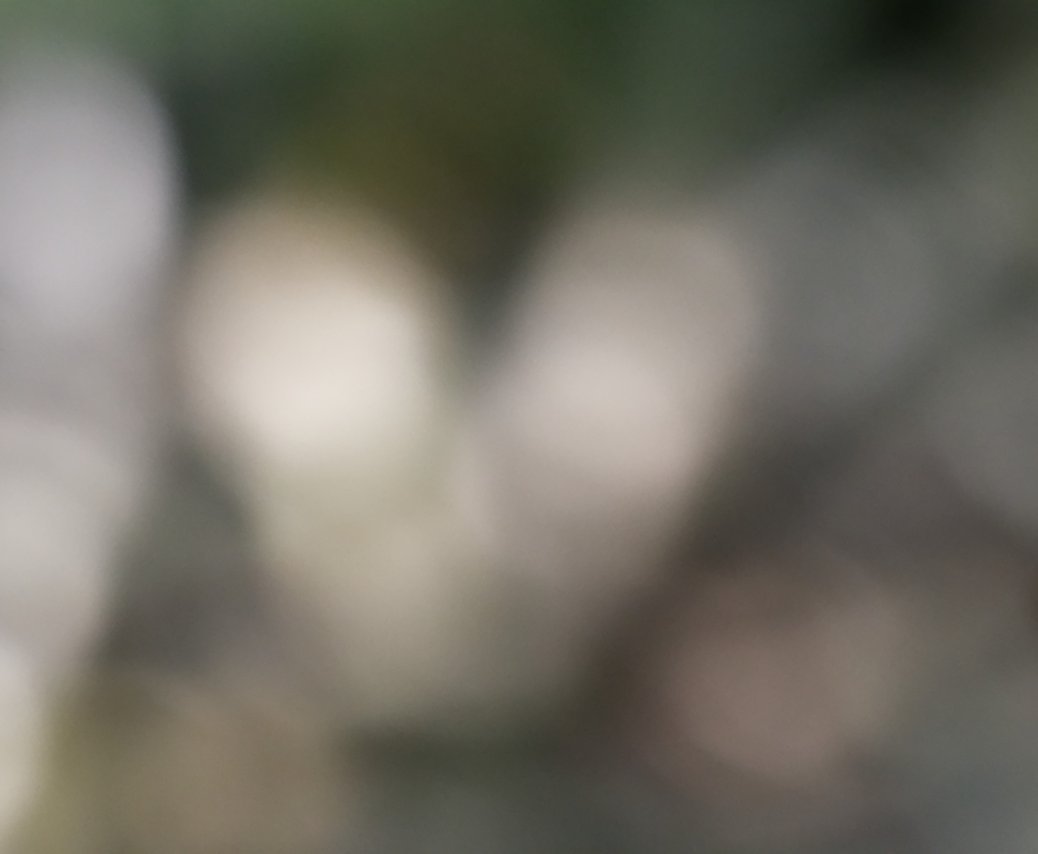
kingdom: Animalia
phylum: Arthropoda
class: Insecta
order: Lepidoptera
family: Nymphalidae
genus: Lethe
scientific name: Lethe eurydice
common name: Appalachian Eyed Brown
